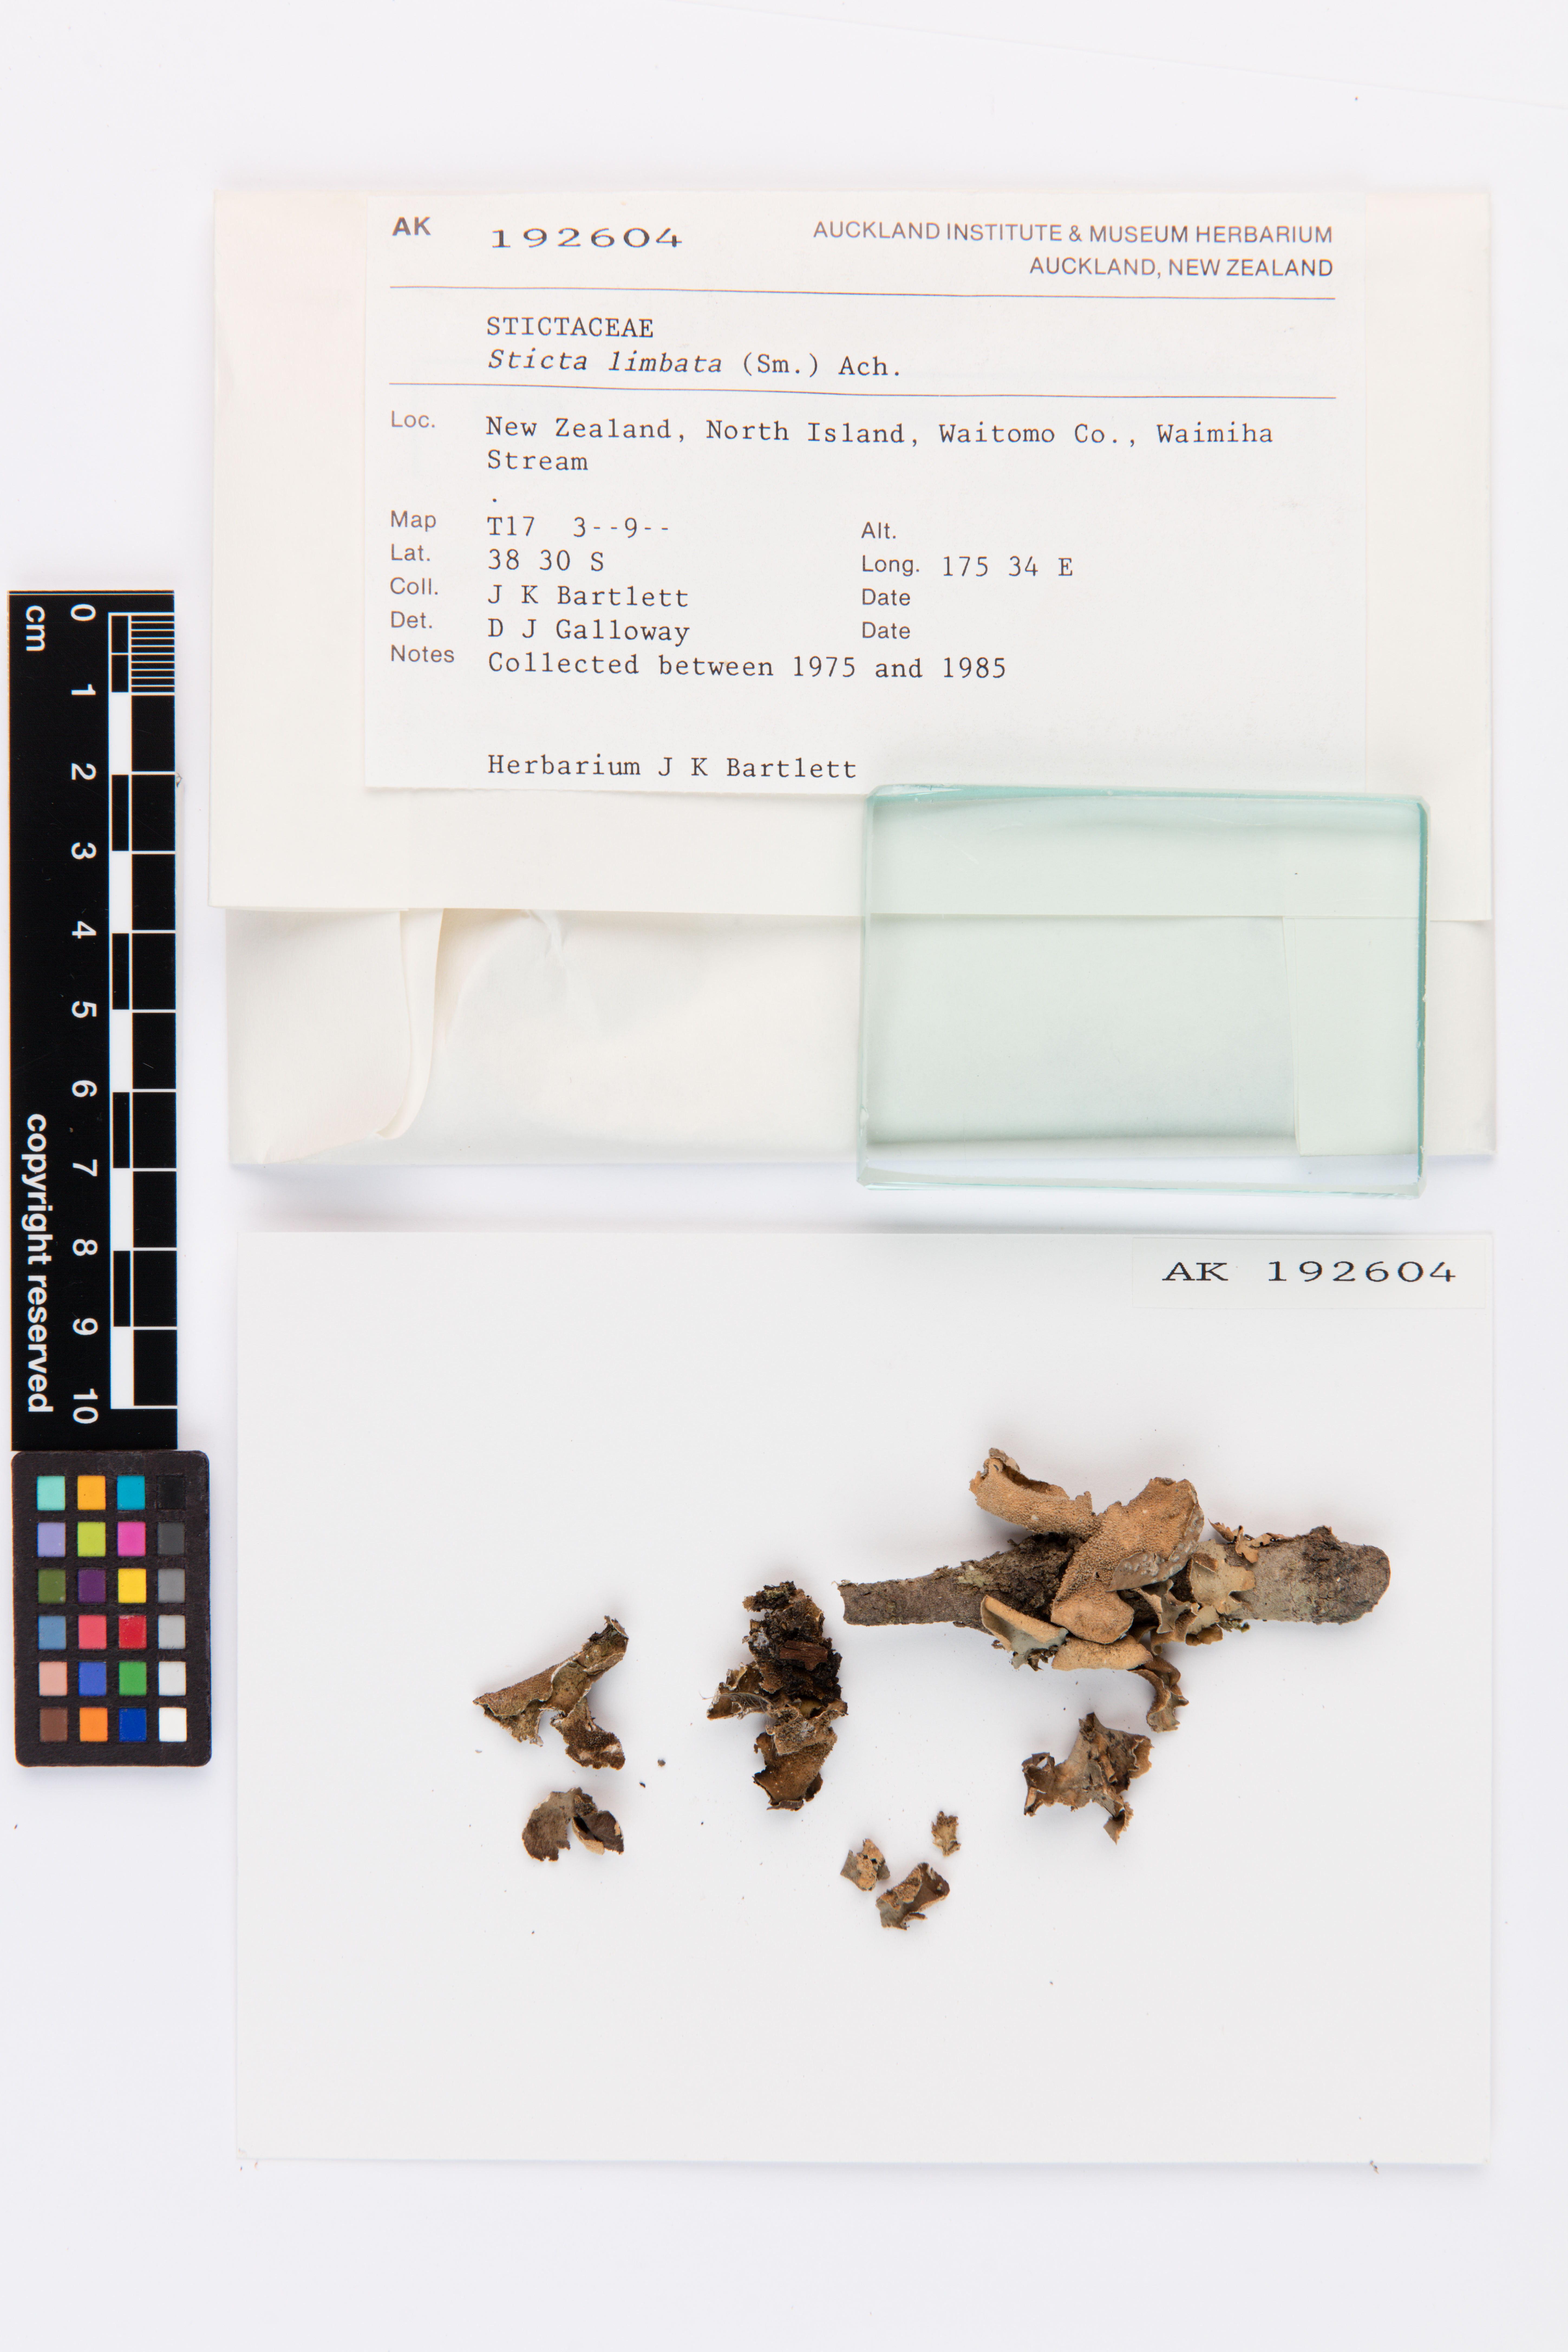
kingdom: Fungi
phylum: Ascomycota
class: Lecanoromycetes
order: Peltigerales
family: Lobariaceae
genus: Sticta
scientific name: Sticta limbata
